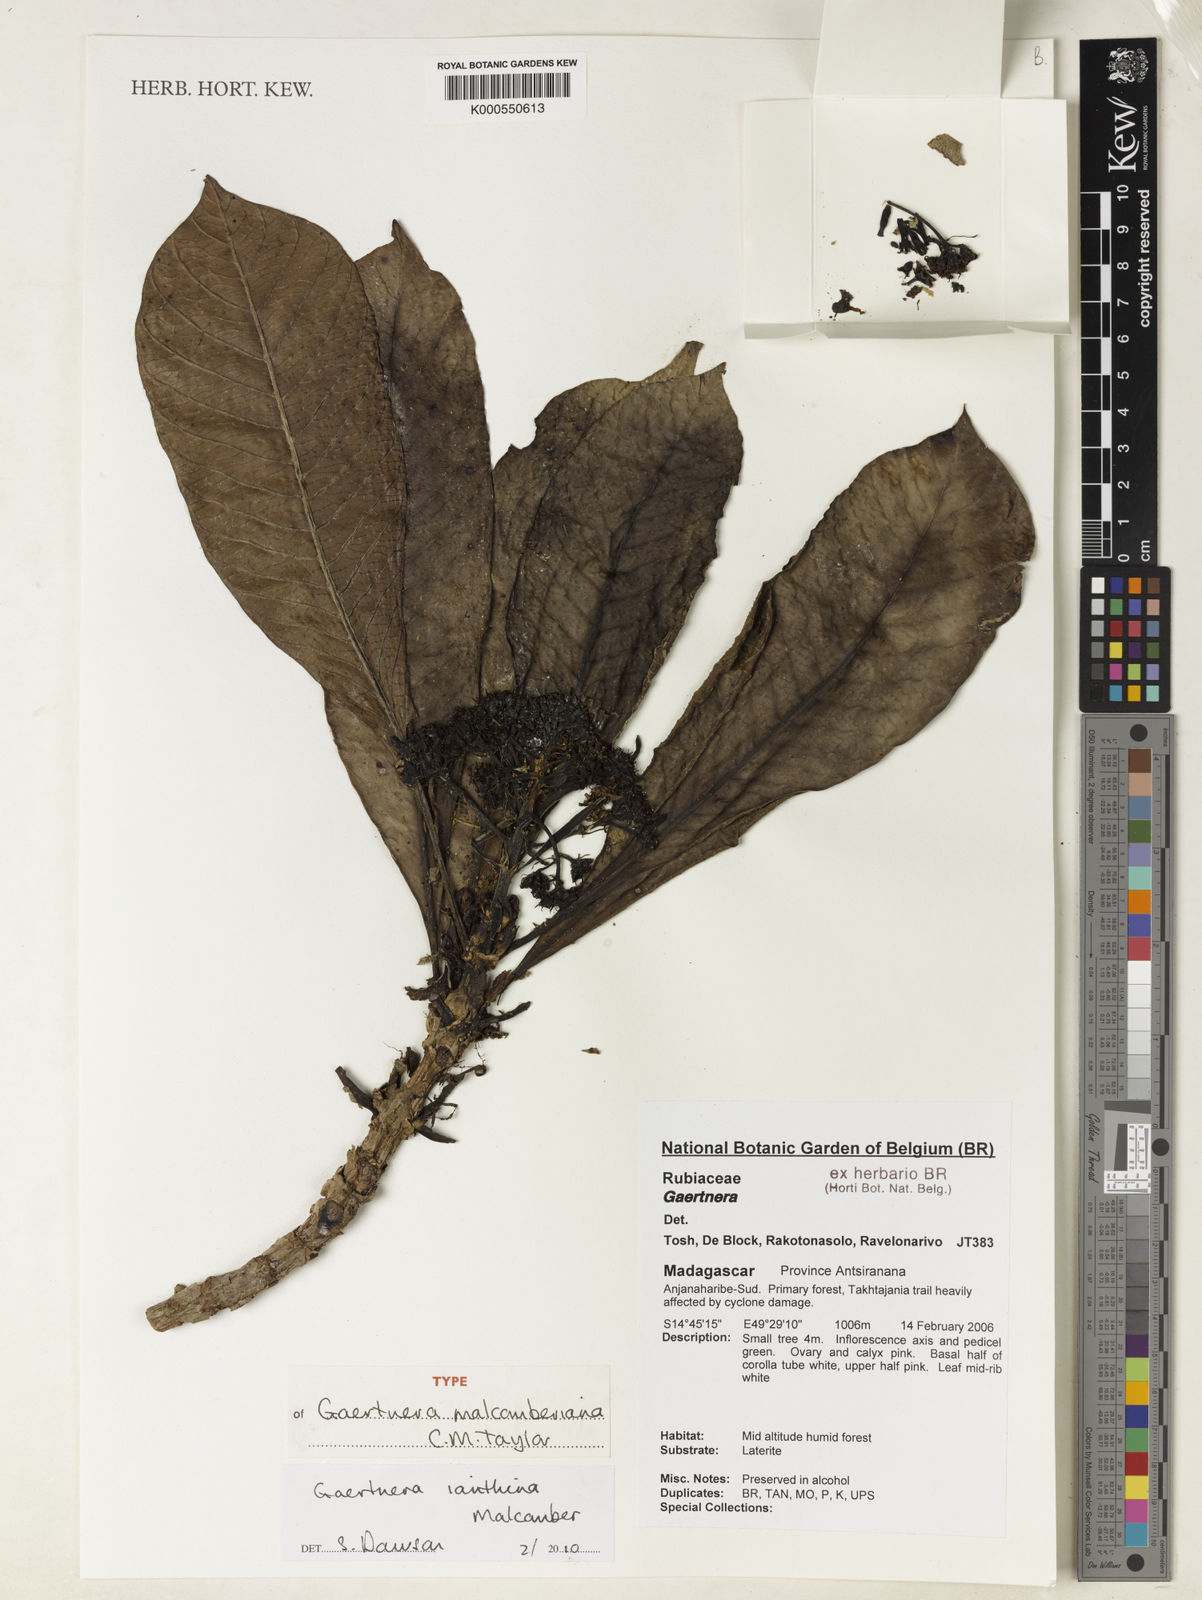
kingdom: Plantae
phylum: Tracheophyta
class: Magnoliopsida
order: Gentianales
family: Rubiaceae
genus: Gaertnera
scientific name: Gaertnera ianthina
